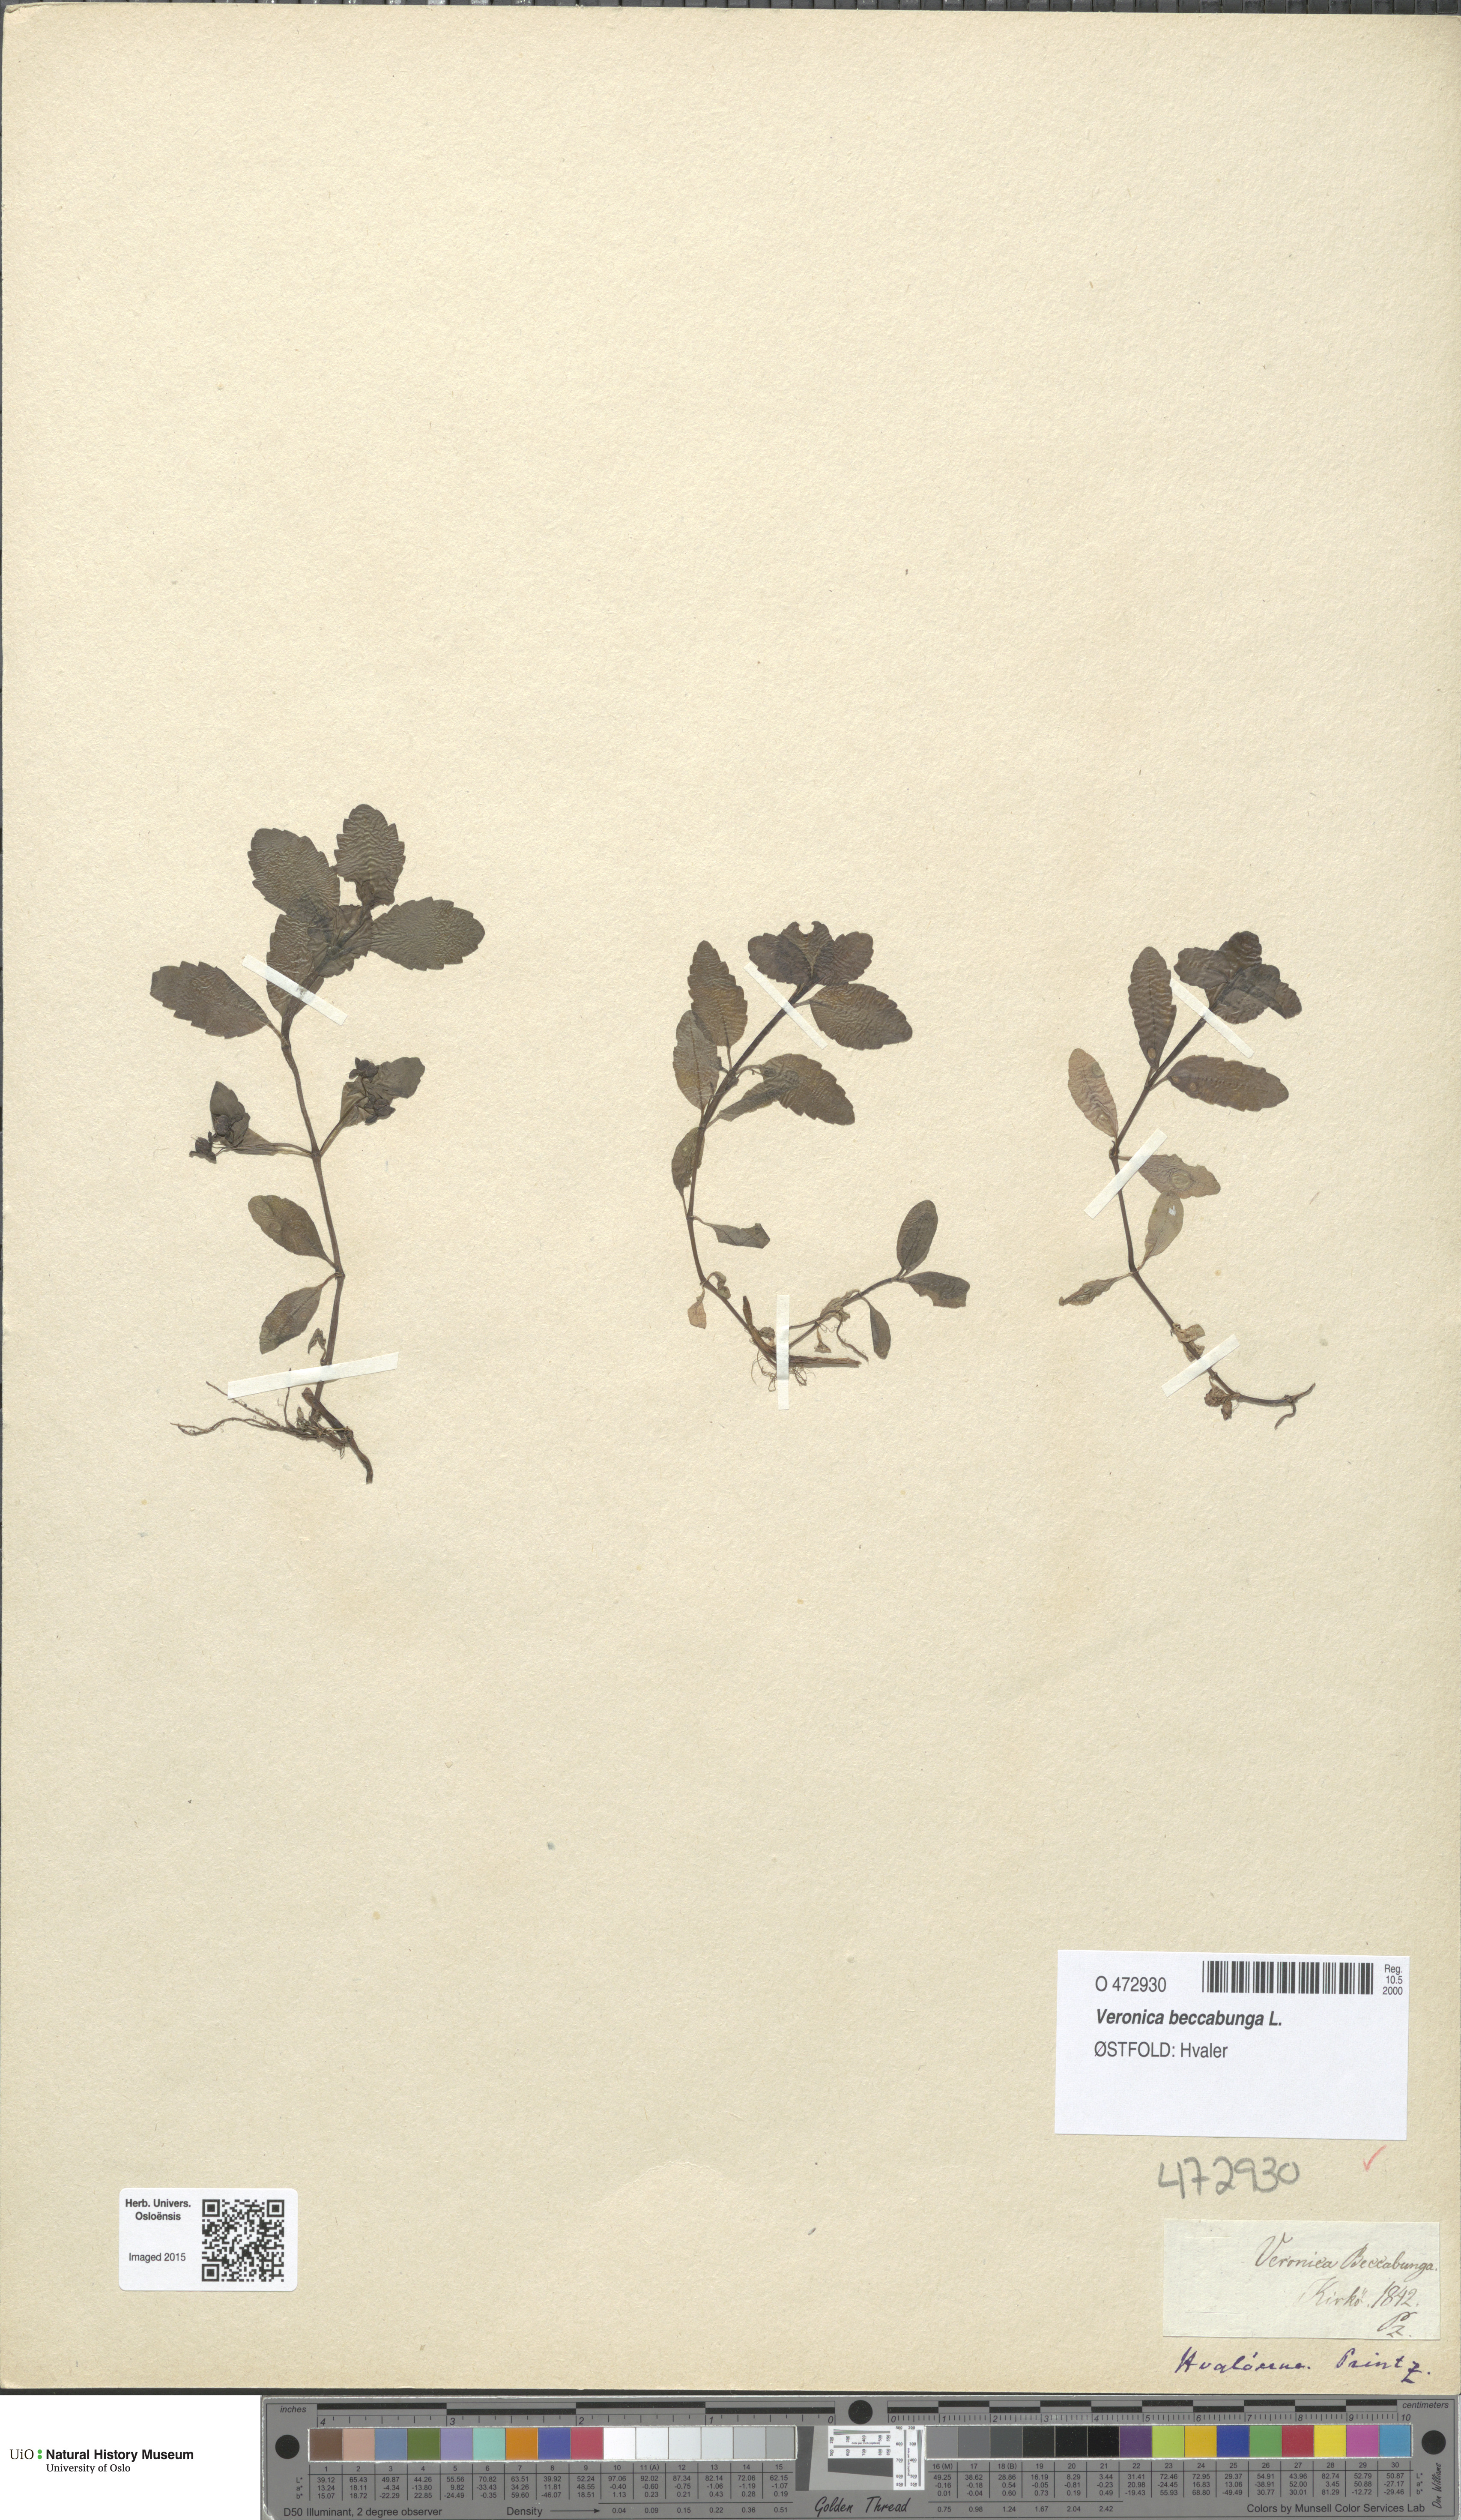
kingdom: Plantae
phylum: Tracheophyta
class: Magnoliopsida
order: Lamiales
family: Plantaginaceae
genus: Veronica
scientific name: Veronica beccabunga
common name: Brooklime
